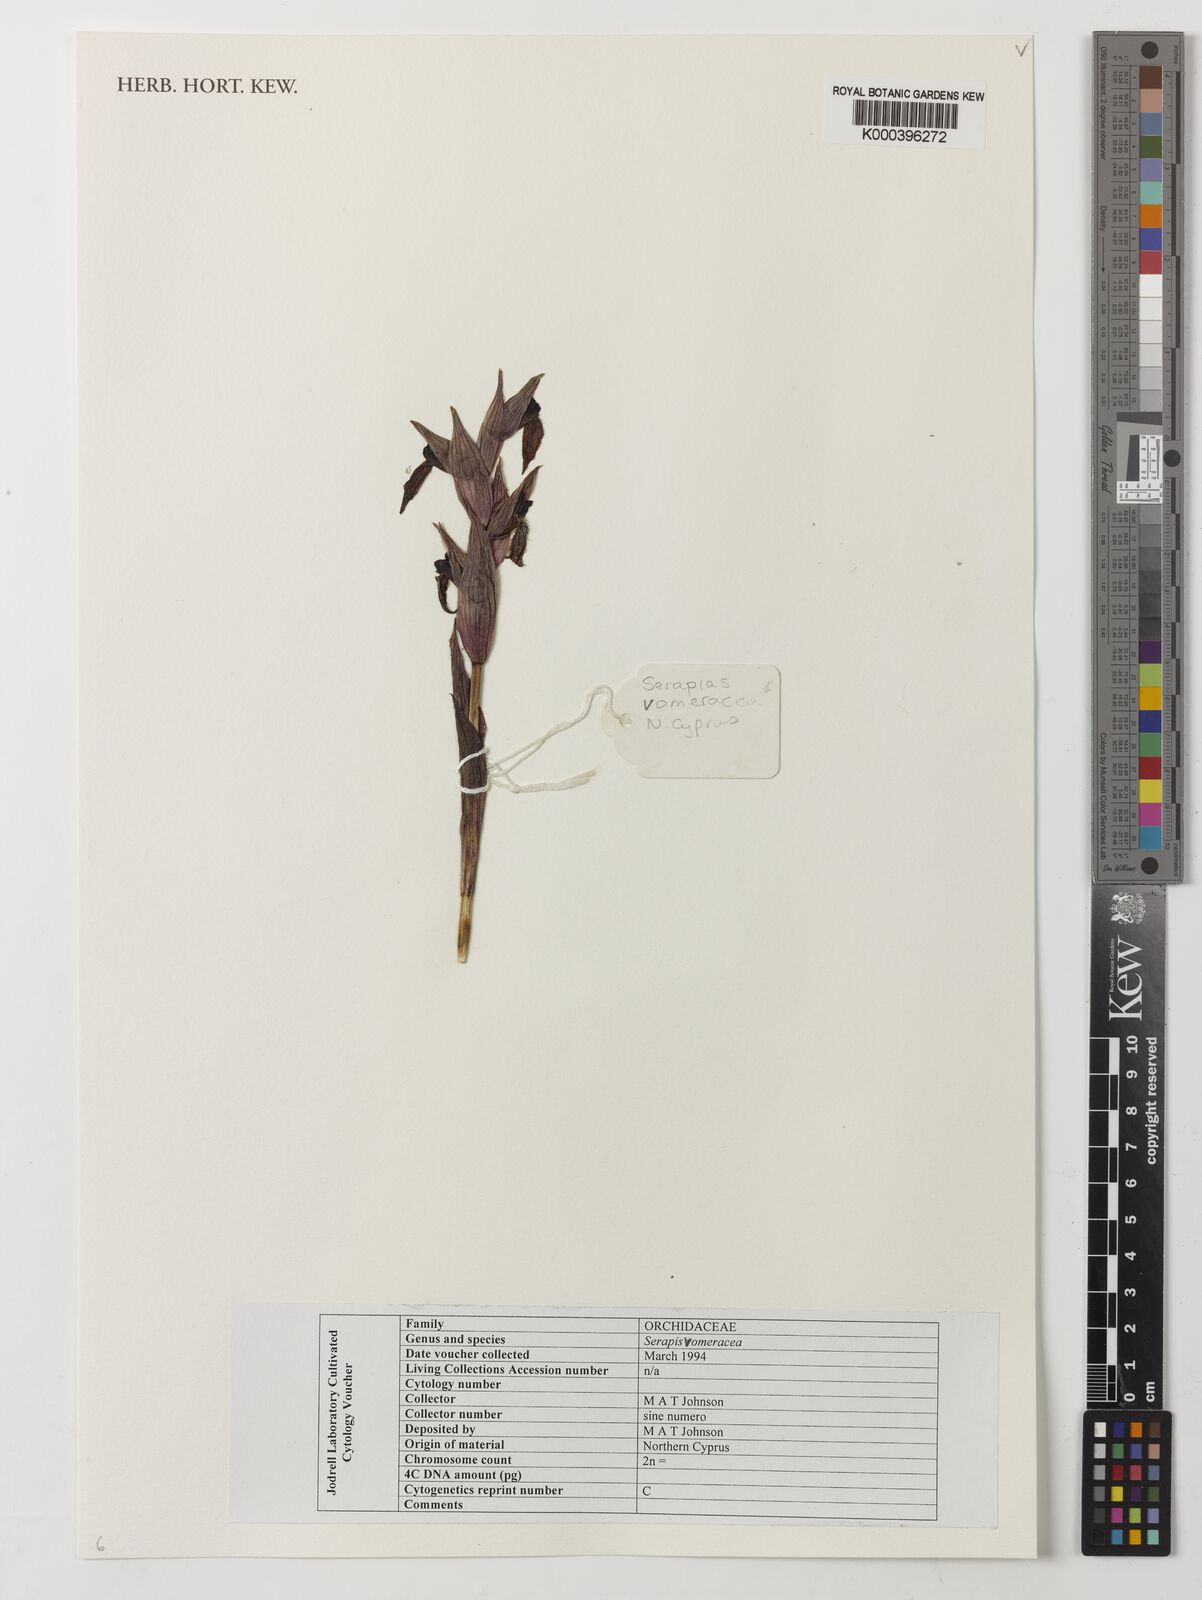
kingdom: Plantae
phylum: Tracheophyta
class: Liliopsida
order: Asparagales
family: Orchidaceae
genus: Serapias
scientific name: Serapias vomeracea
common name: Long-lipped tongue-orchid
